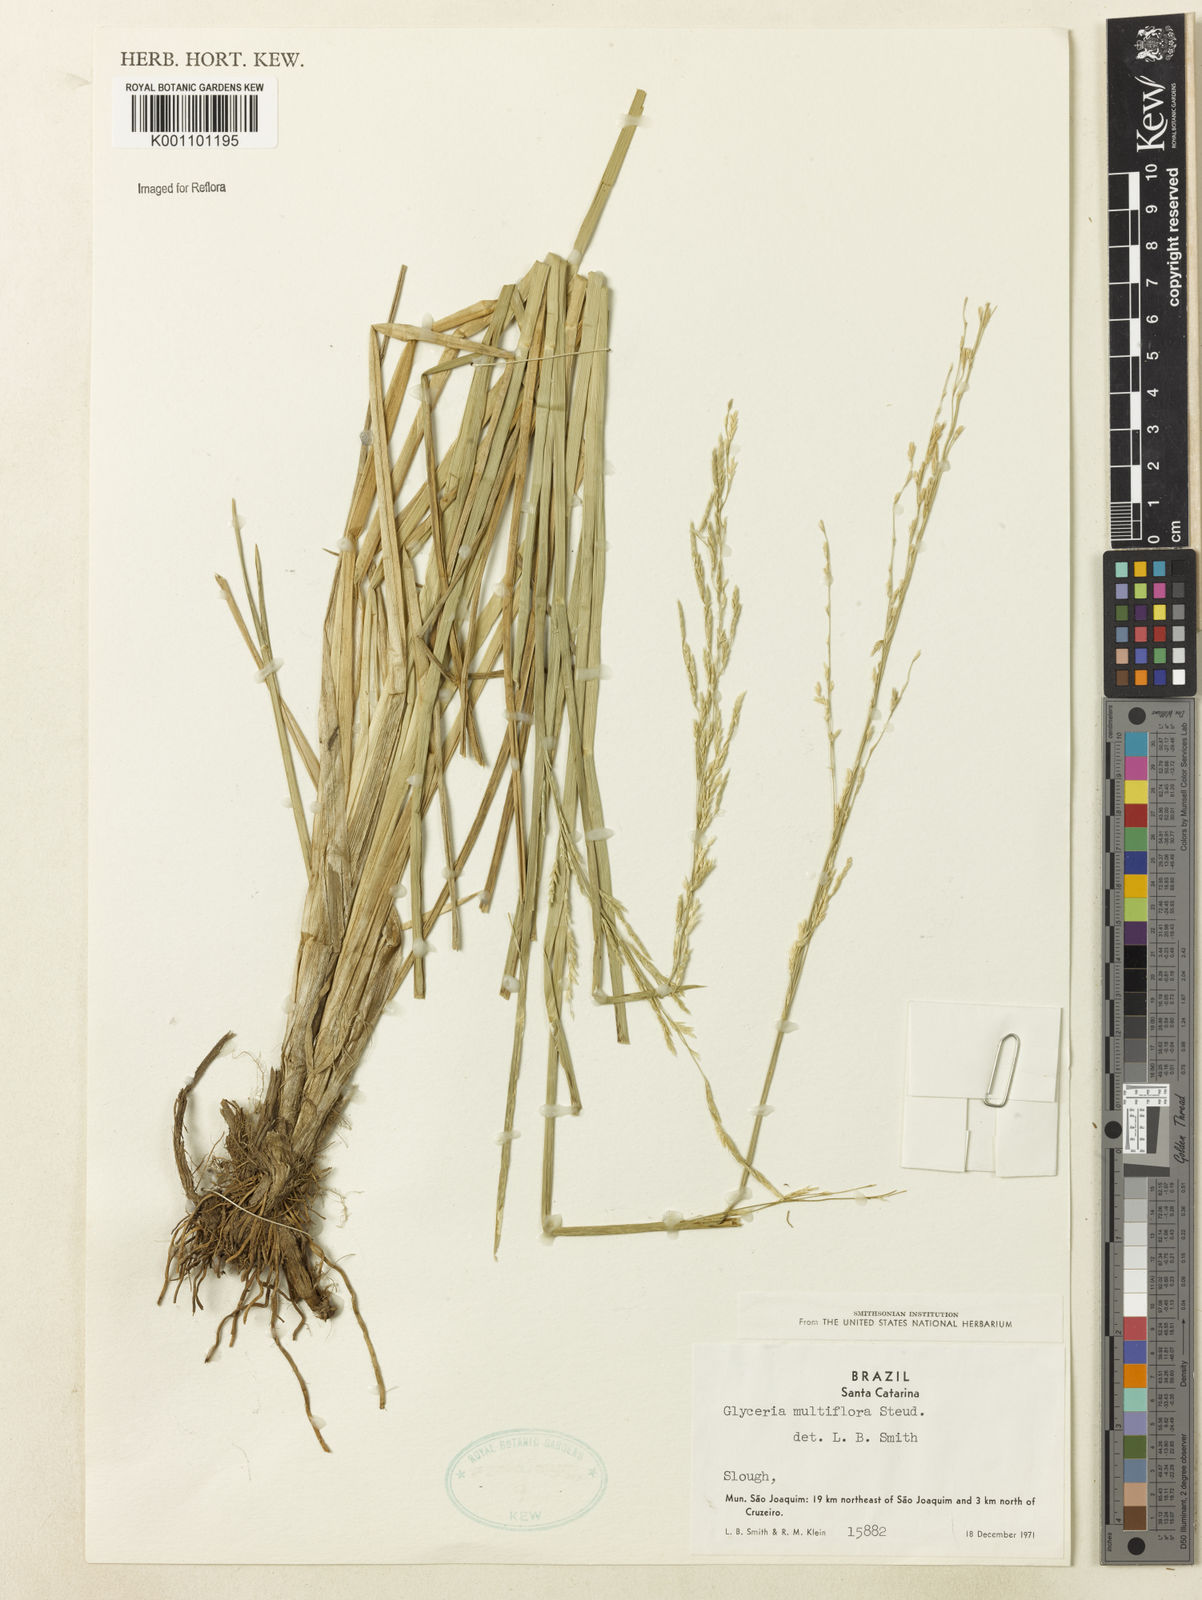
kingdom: Plantae
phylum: Tracheophyta
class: Liliopsida
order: Poales
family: Poaceae
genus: Glyceria
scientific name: Glyceria multiflora
